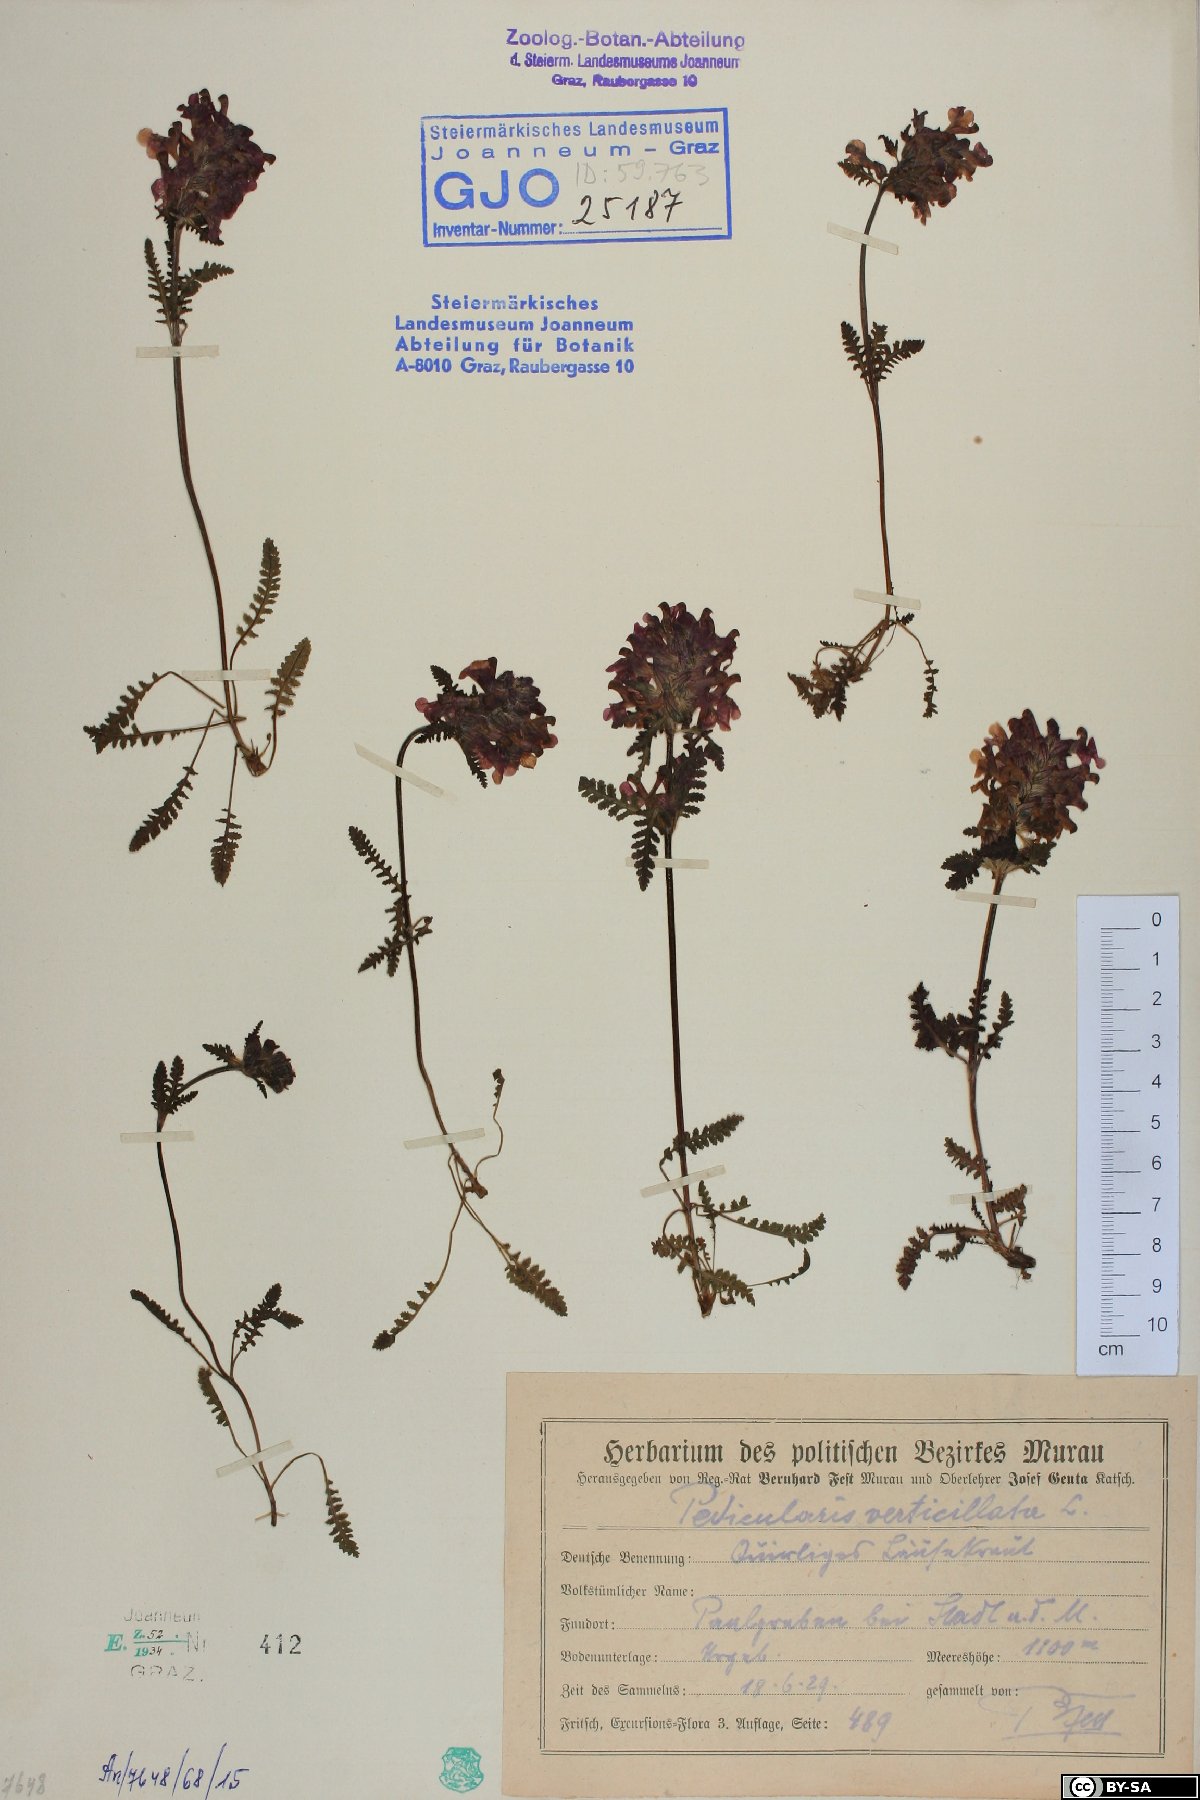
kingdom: Plantae
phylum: Tracheophyta
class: Magnoliopsida
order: Lamiales
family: Orobanchaceae
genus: Pedicularis
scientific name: Pedicularis verticillata
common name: Whorled lousewort
